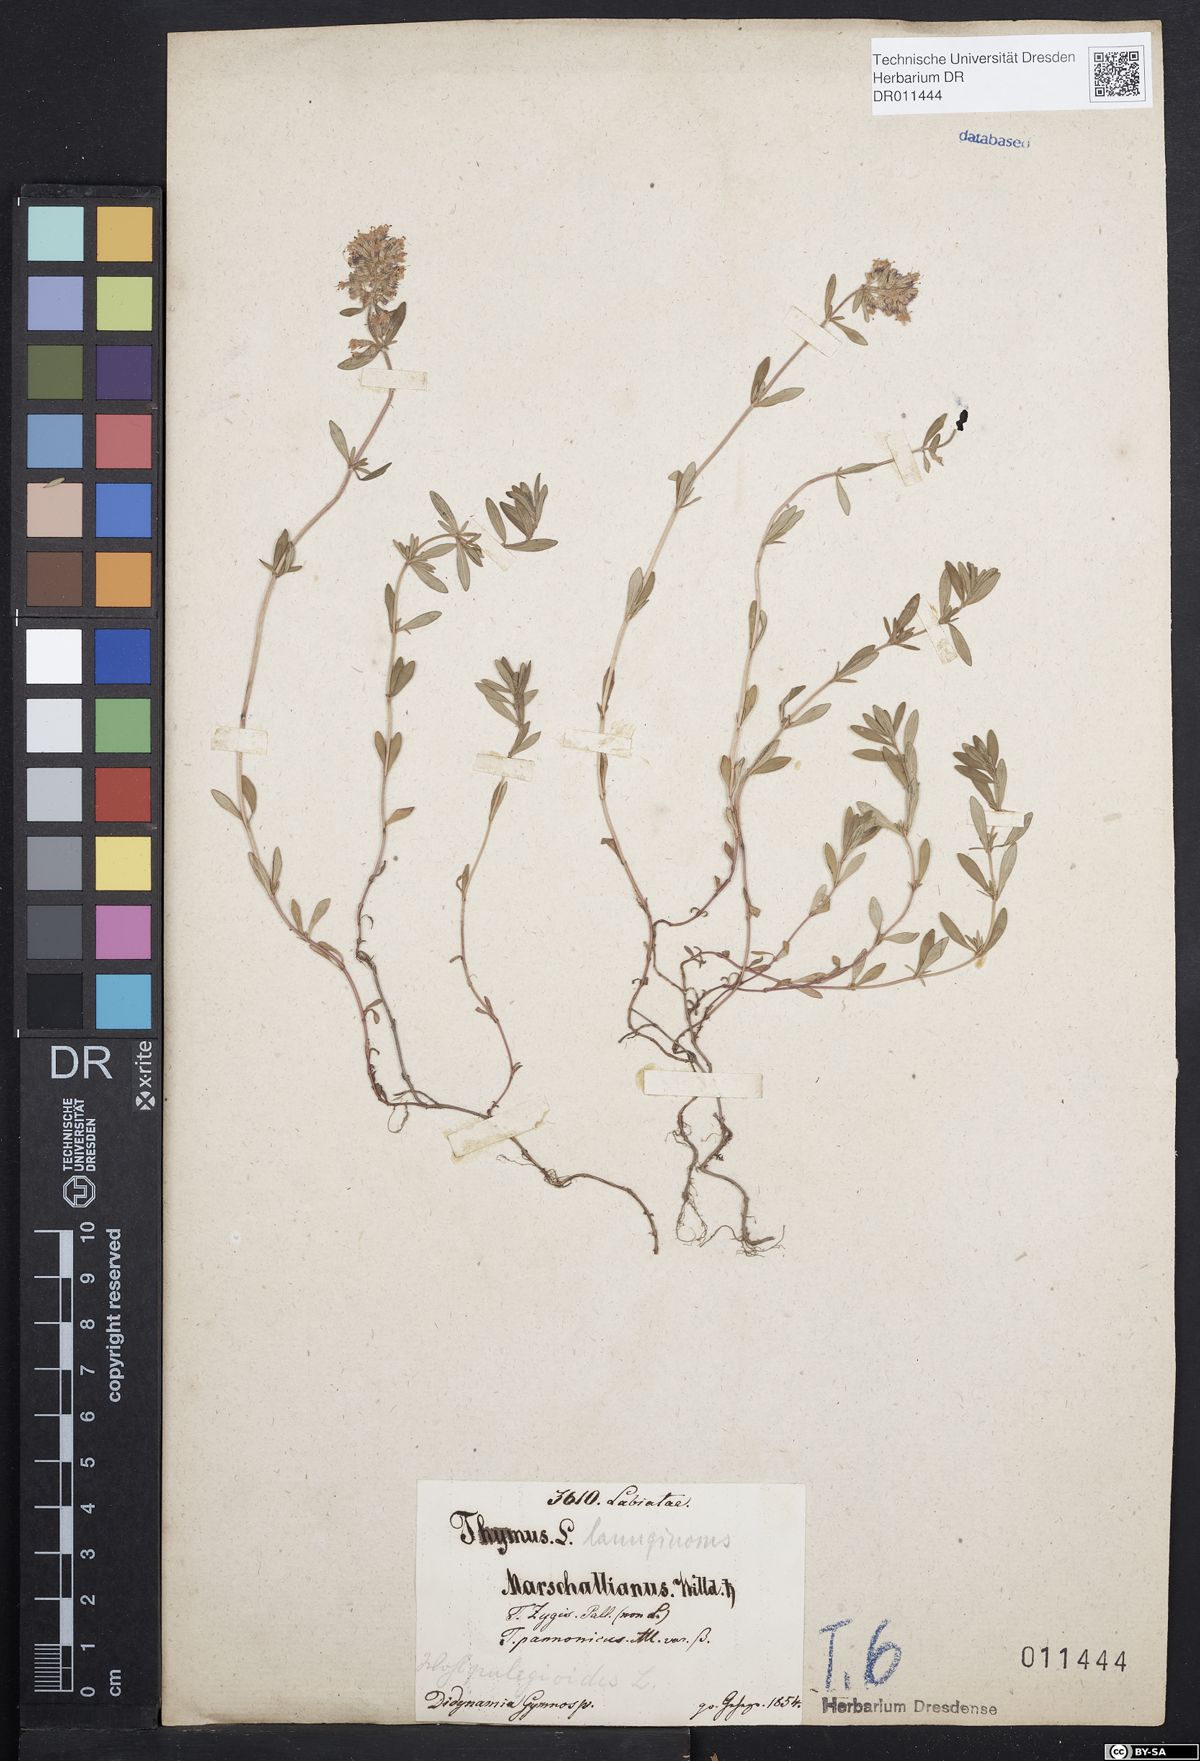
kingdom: Plantae
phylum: Tracheophyta
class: Magnoliopsida
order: Lamiales
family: Lamiaceae
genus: Thymus
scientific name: Thymus pannonicus
